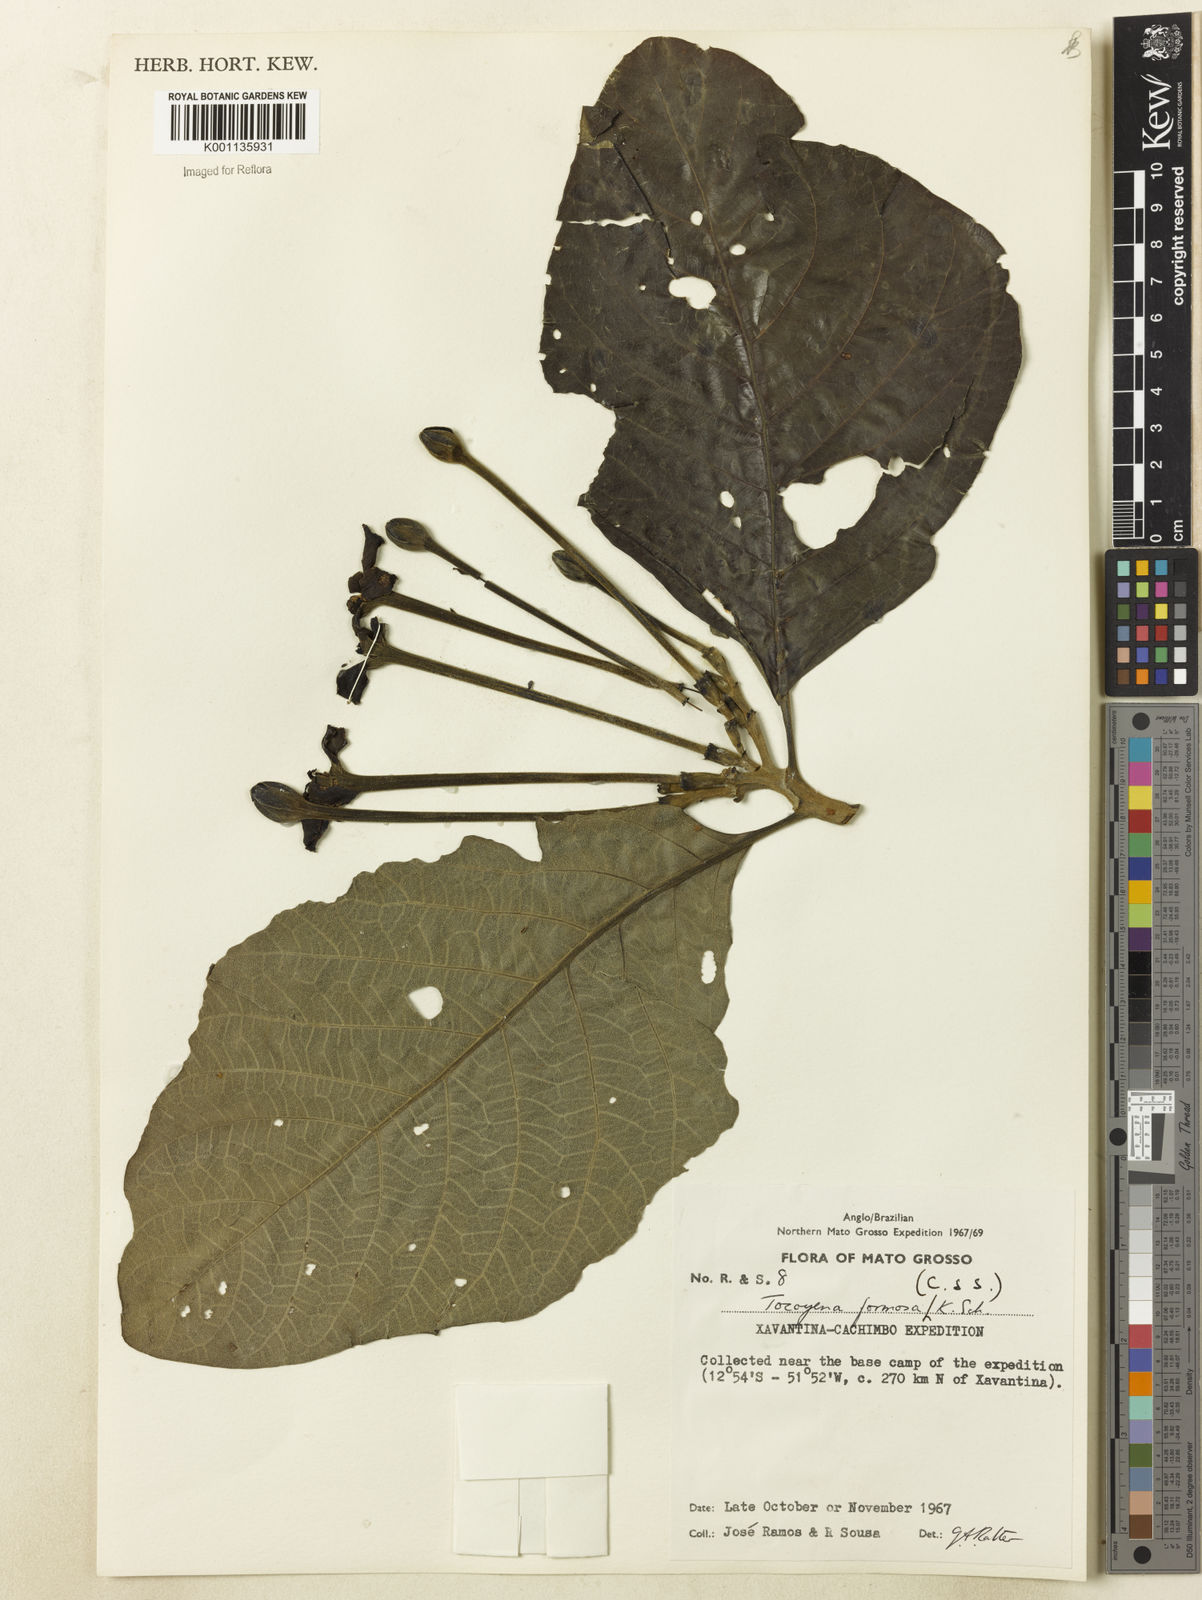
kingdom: Plantae
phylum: Tracheophyta
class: Magnoliopsida
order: Gentianales
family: Rubiaceae
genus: Tocoyena
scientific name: Tocoyena formosa
